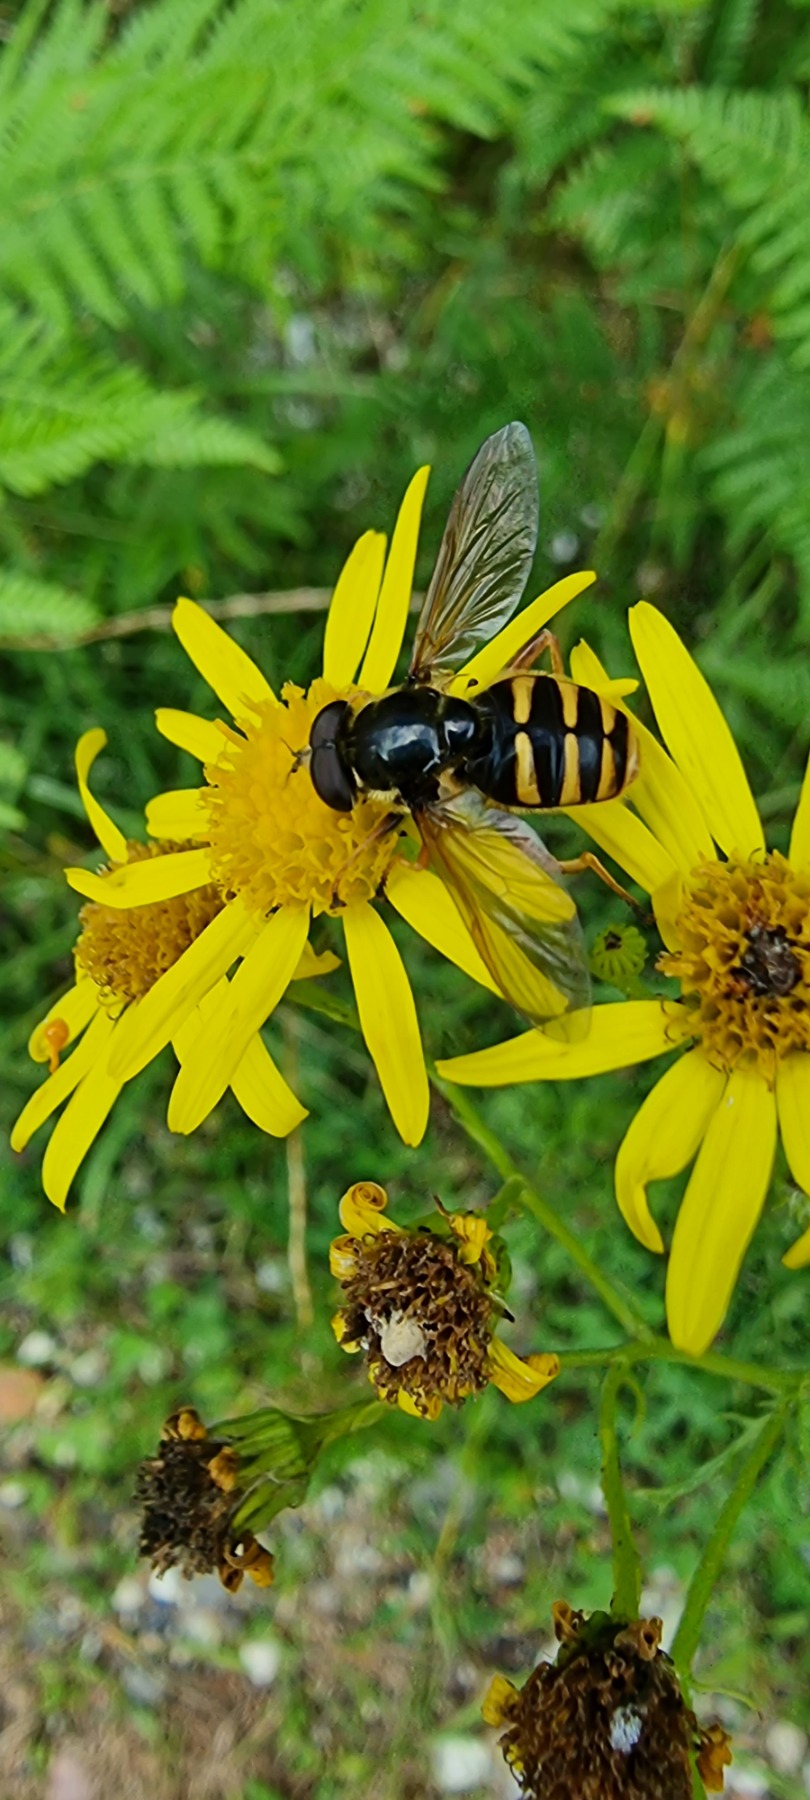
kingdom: Animalia
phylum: Arthropoda
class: Insecta
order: Diptera
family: Syrphidae
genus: Sericomyia
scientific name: Sericomyia silentis
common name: Tørve-silkesvirreflue
